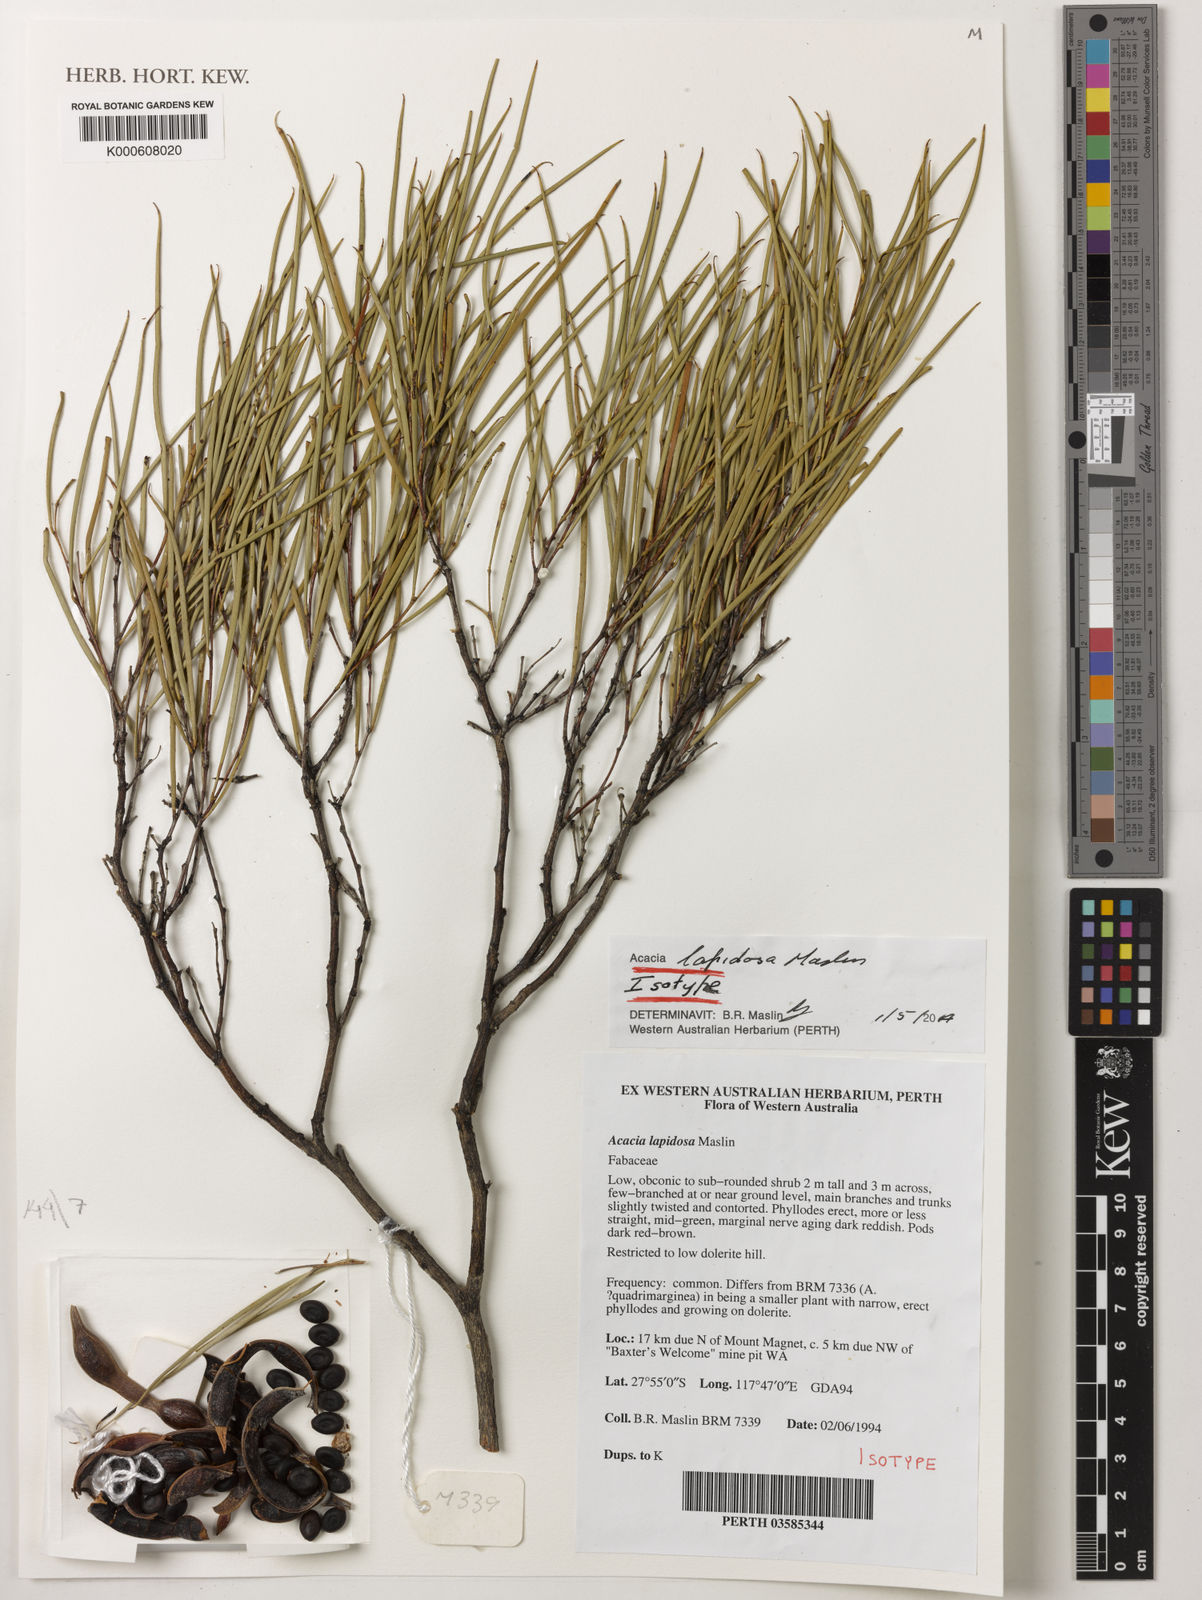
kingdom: Plantae
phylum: Tracheophyta
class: Magnoliopsida
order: Fabales
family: Fabaceae
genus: Acacia
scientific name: Acacia lapidosa
